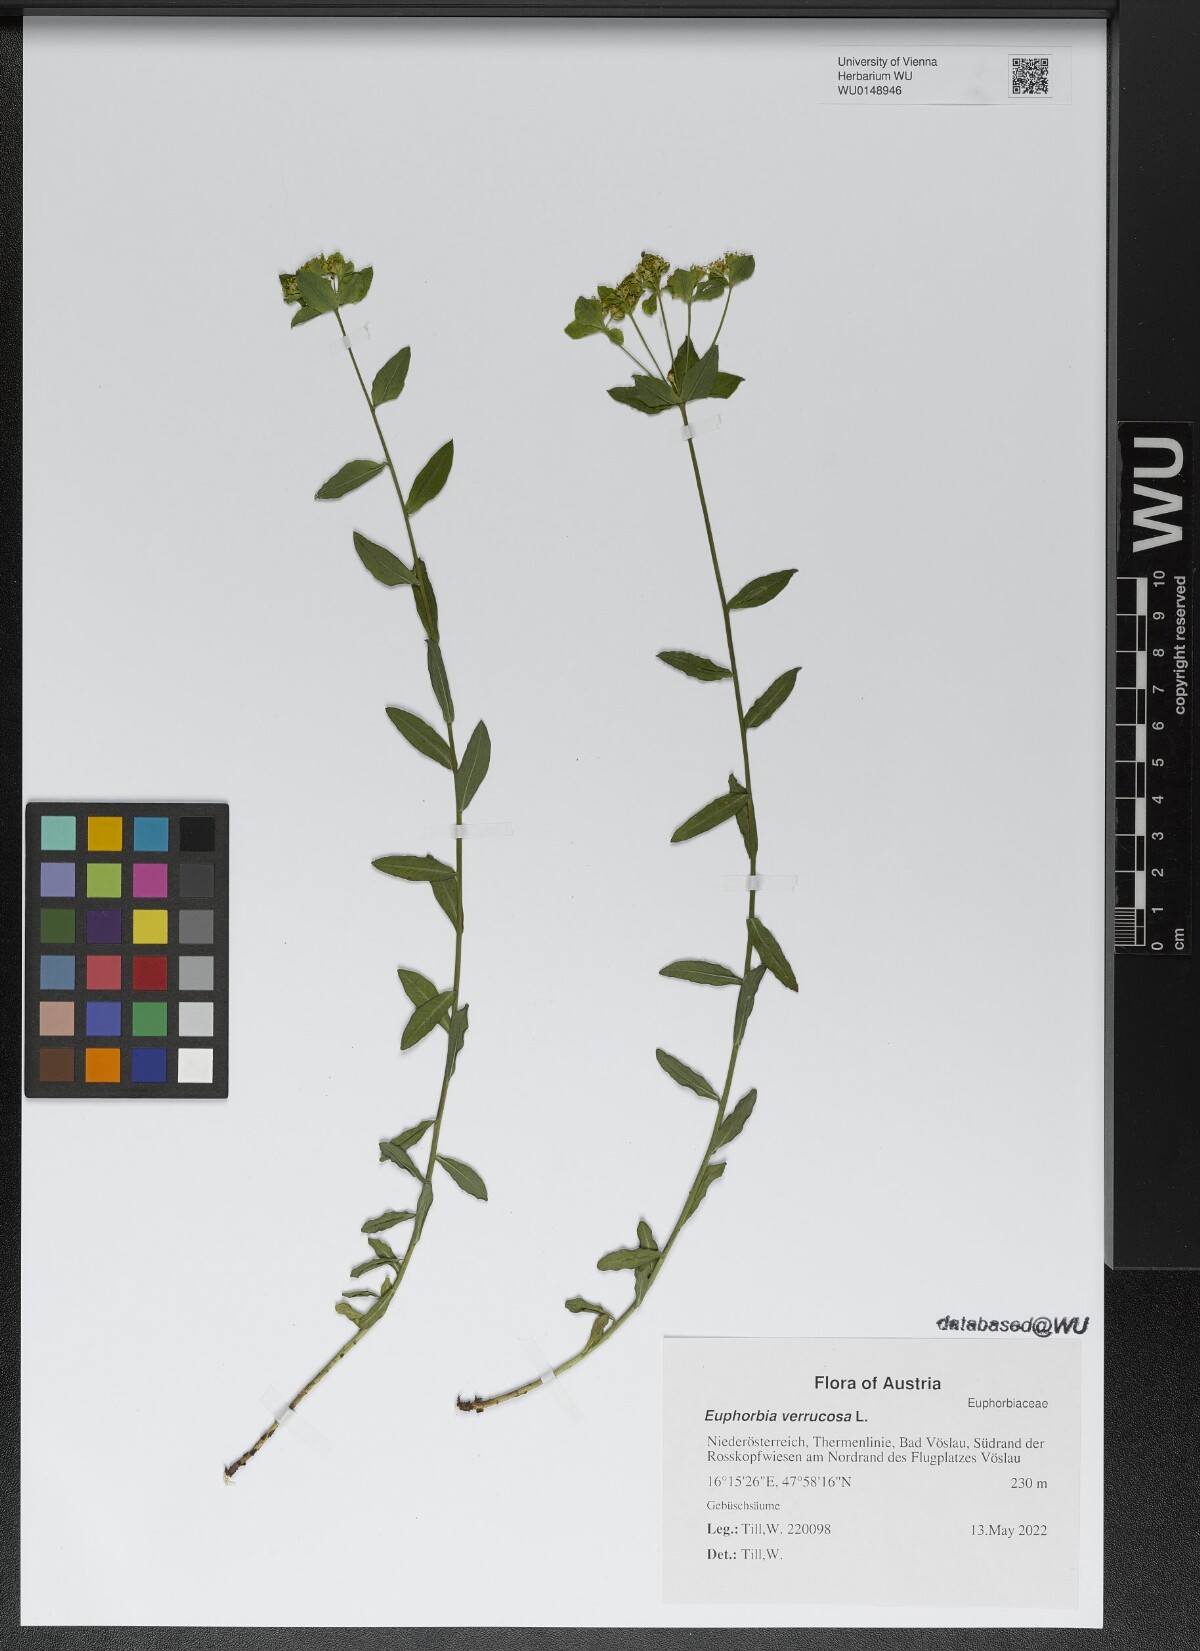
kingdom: Plantae
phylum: Tracheophyta
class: Magnoliopsida
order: Malpighiales
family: Euphorbiaceae
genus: Euphorbia
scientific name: Euphorbia verrucosa
